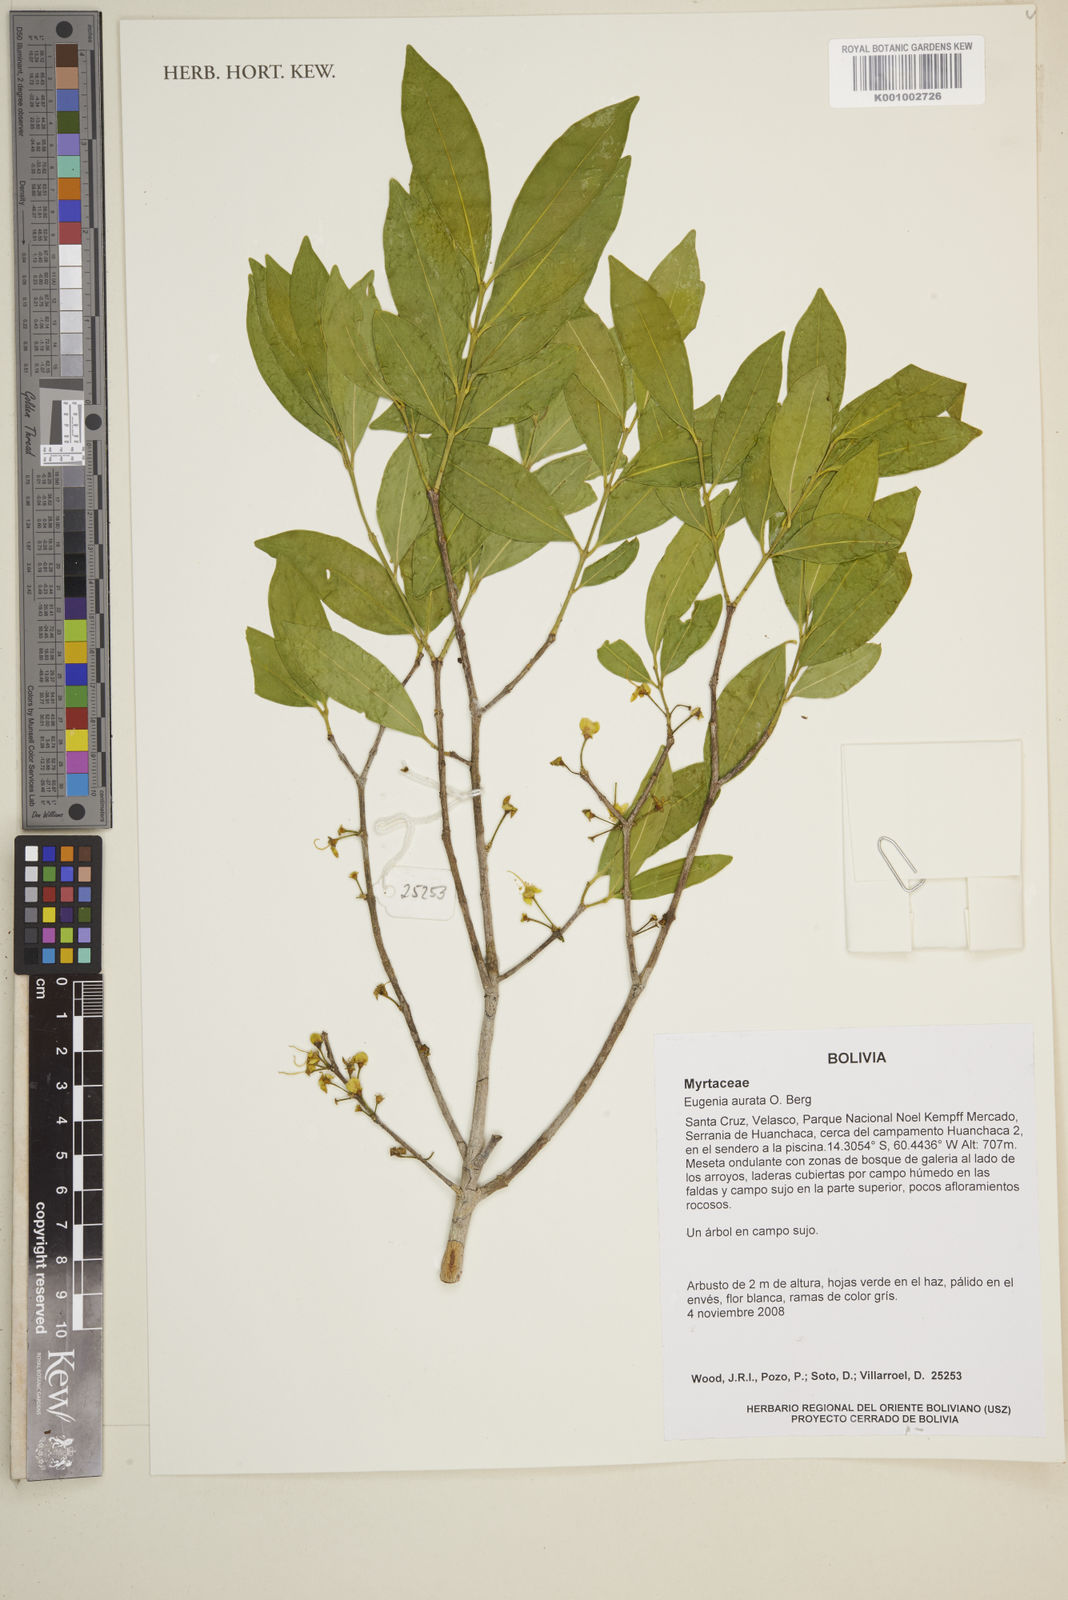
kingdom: Plantae
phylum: Tracheophyta
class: Magnoliopsida
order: Myrtales
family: Myrtaceae
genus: Eugenia
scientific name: Eugenia aurata
